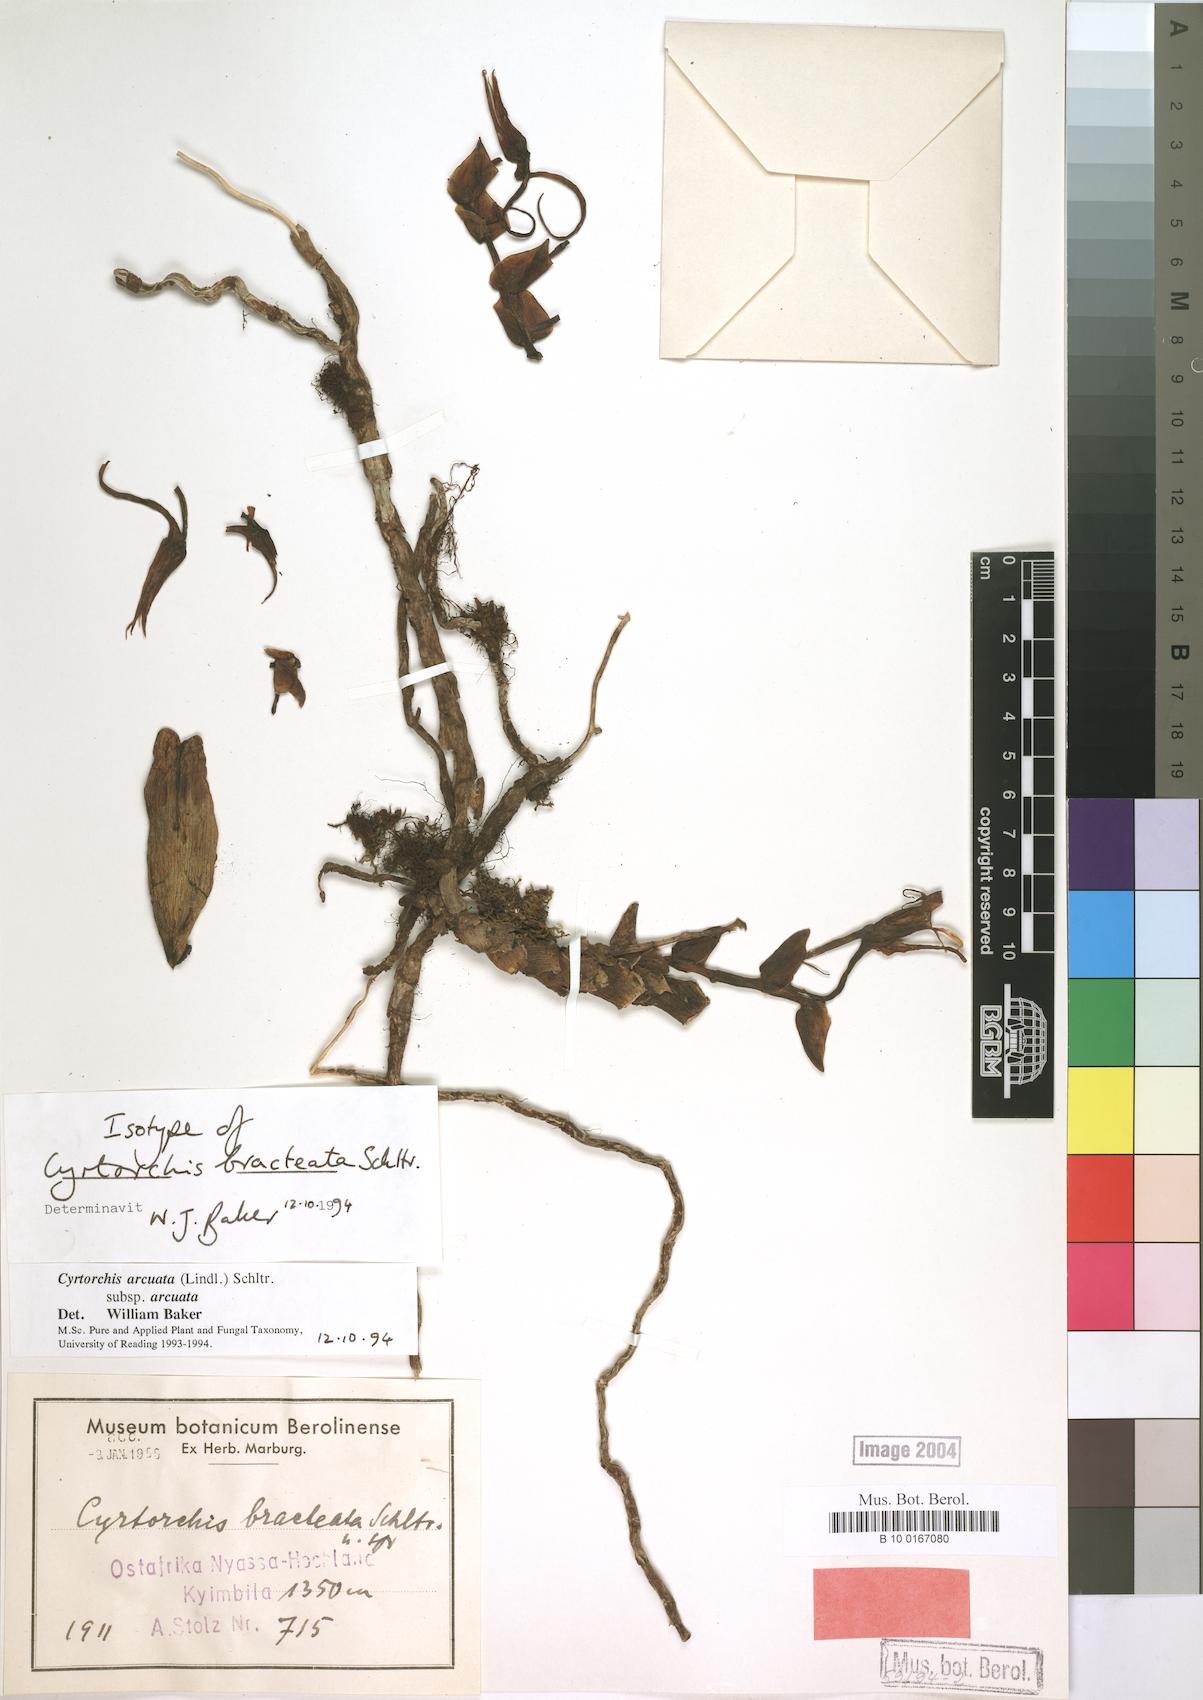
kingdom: Plantae
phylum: Tracheophyta
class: Liliopsida
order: Asparagales
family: Orchidaceae
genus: Cyrtorchis
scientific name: Cyrtorchis arcuata
